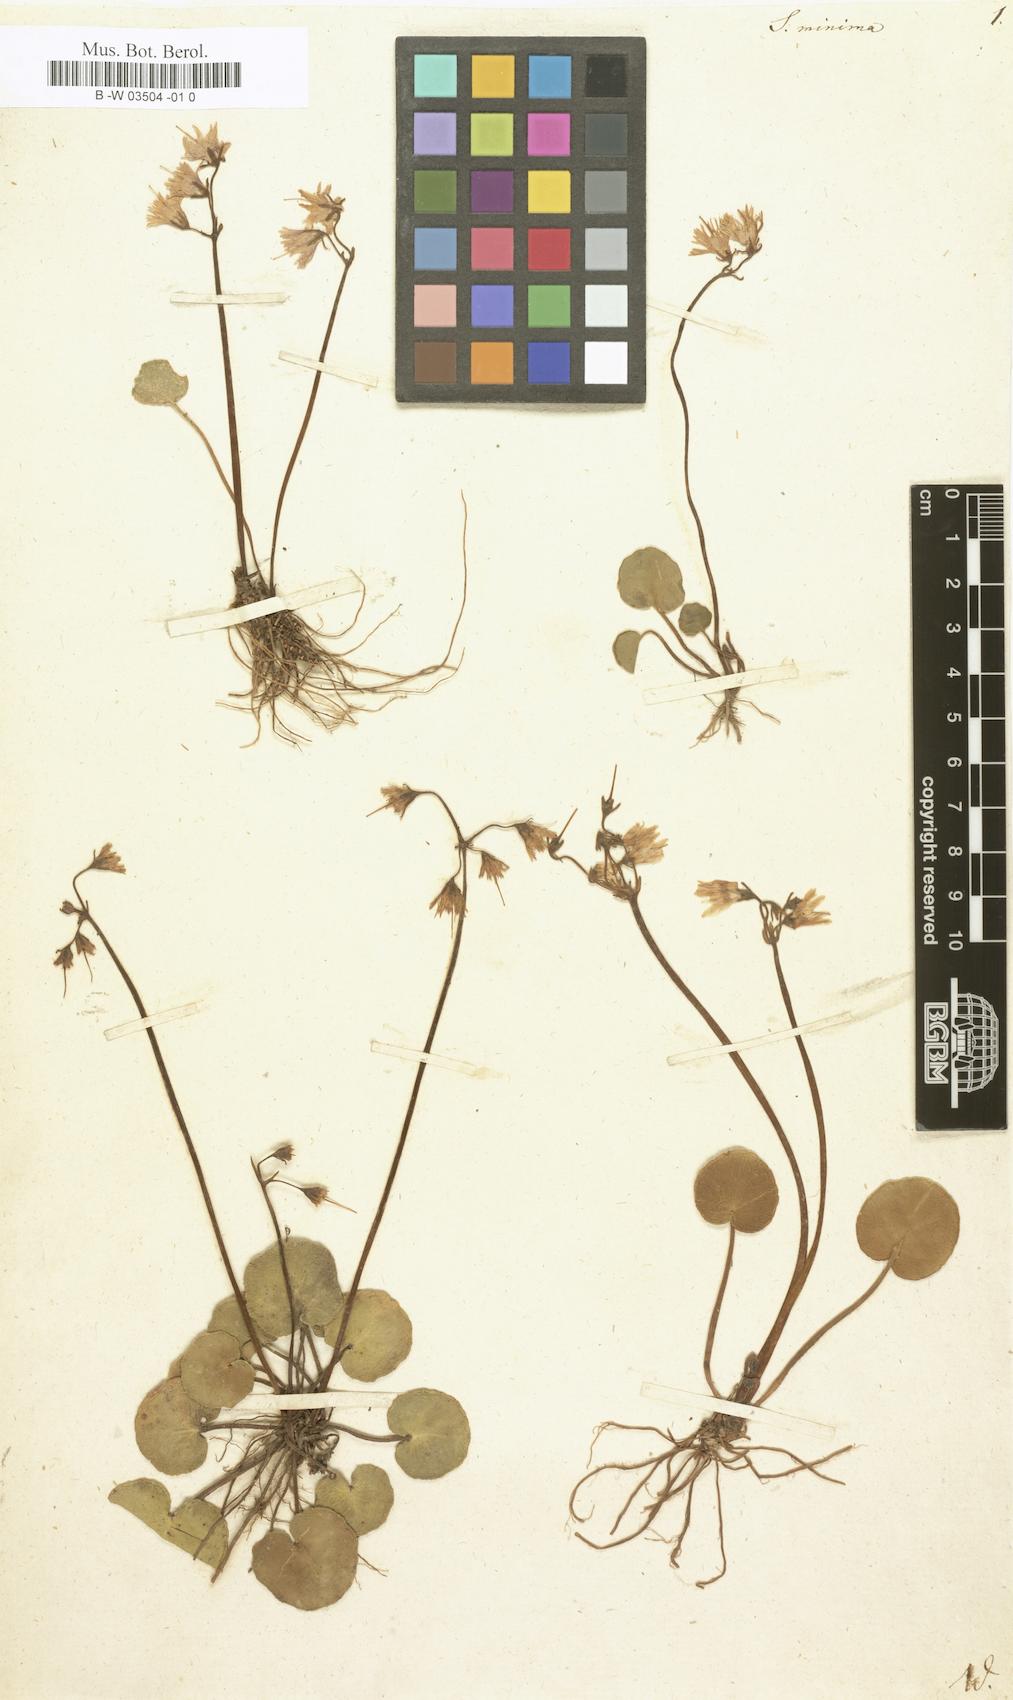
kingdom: Plantae
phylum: Tracheophyta
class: Magnoliopsida
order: Ericales
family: Primulaceae
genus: Soldanella
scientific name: Soldanella minima
